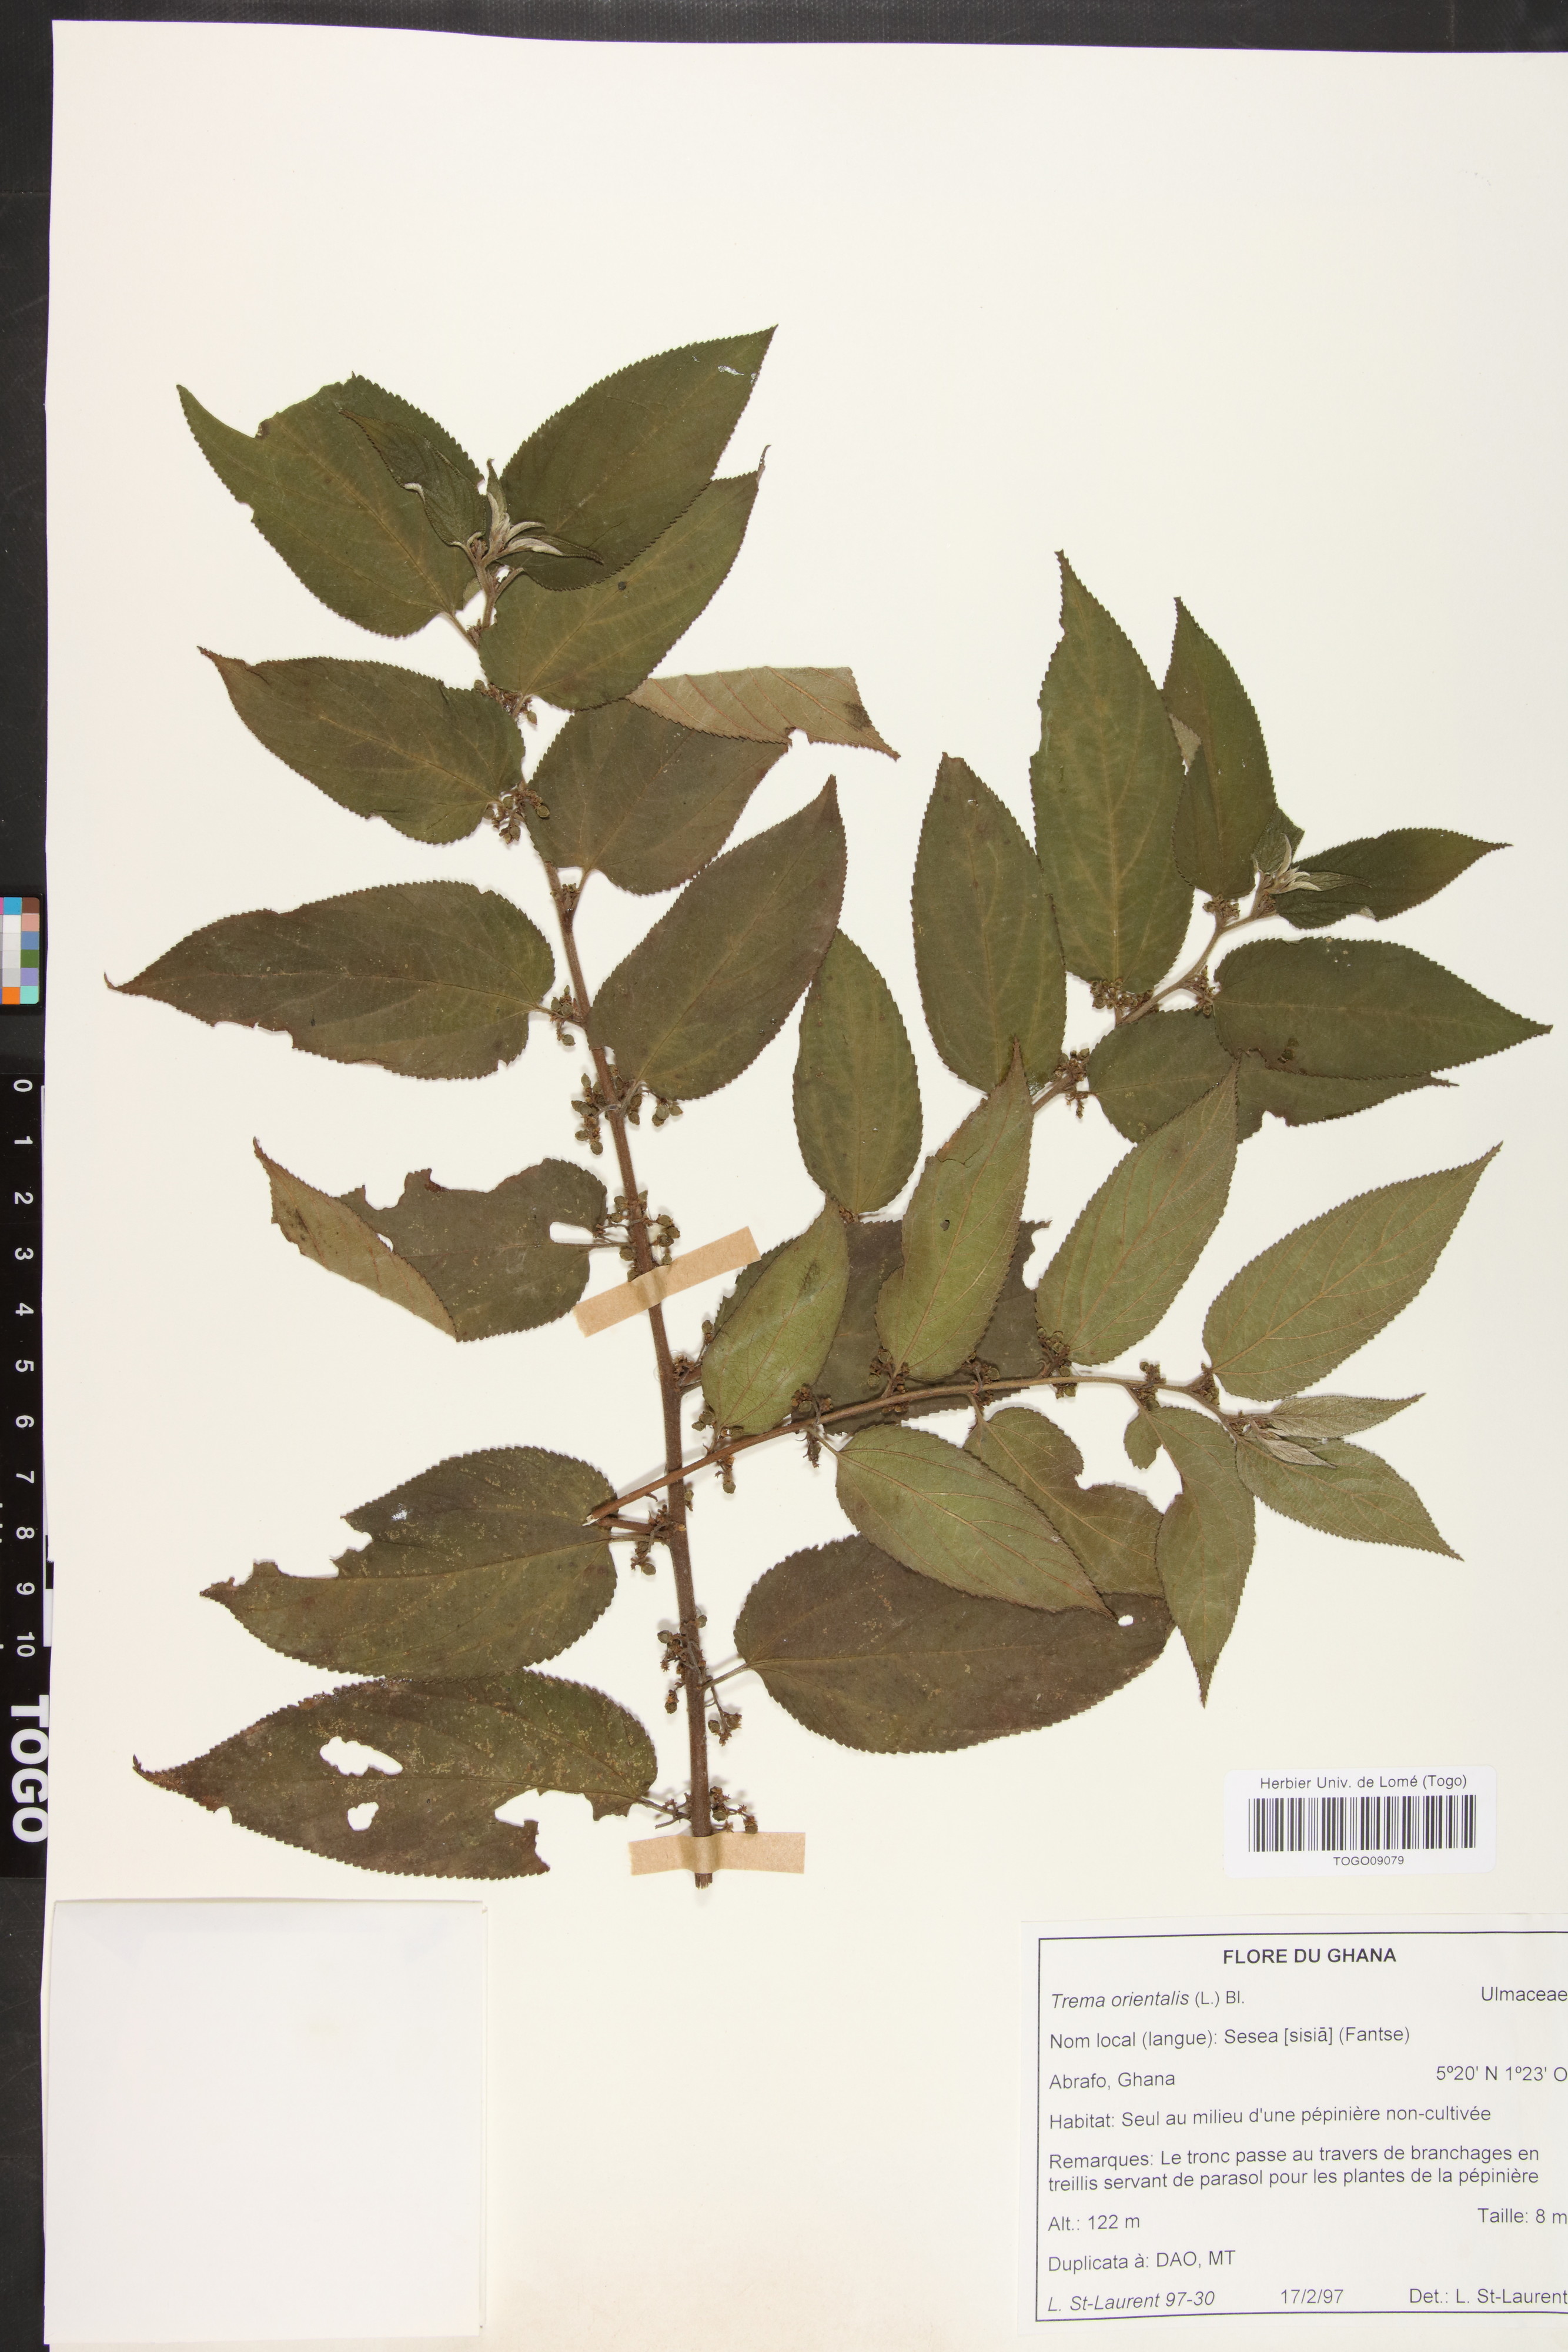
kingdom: Plantae
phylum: Tracheophyta
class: Magnoliopsida
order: Rosales
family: Cannabaceae
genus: Trema
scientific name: Trema orientale
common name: Indian charcoal tree
